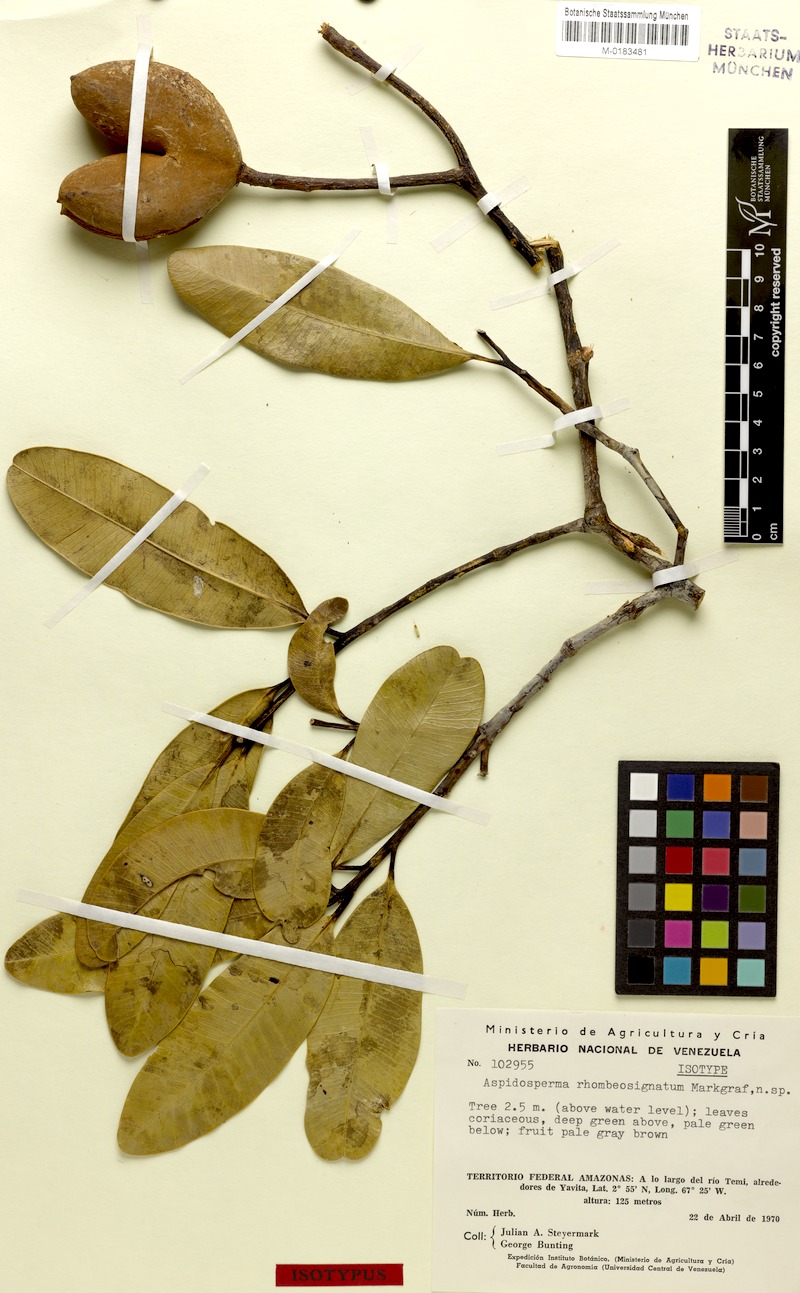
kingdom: Plantae
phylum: Tracheophyta
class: Magnoliopsida
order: Gentianales
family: Apocynaceae
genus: Aspidosperma
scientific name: Aspidosperma pachypterum
